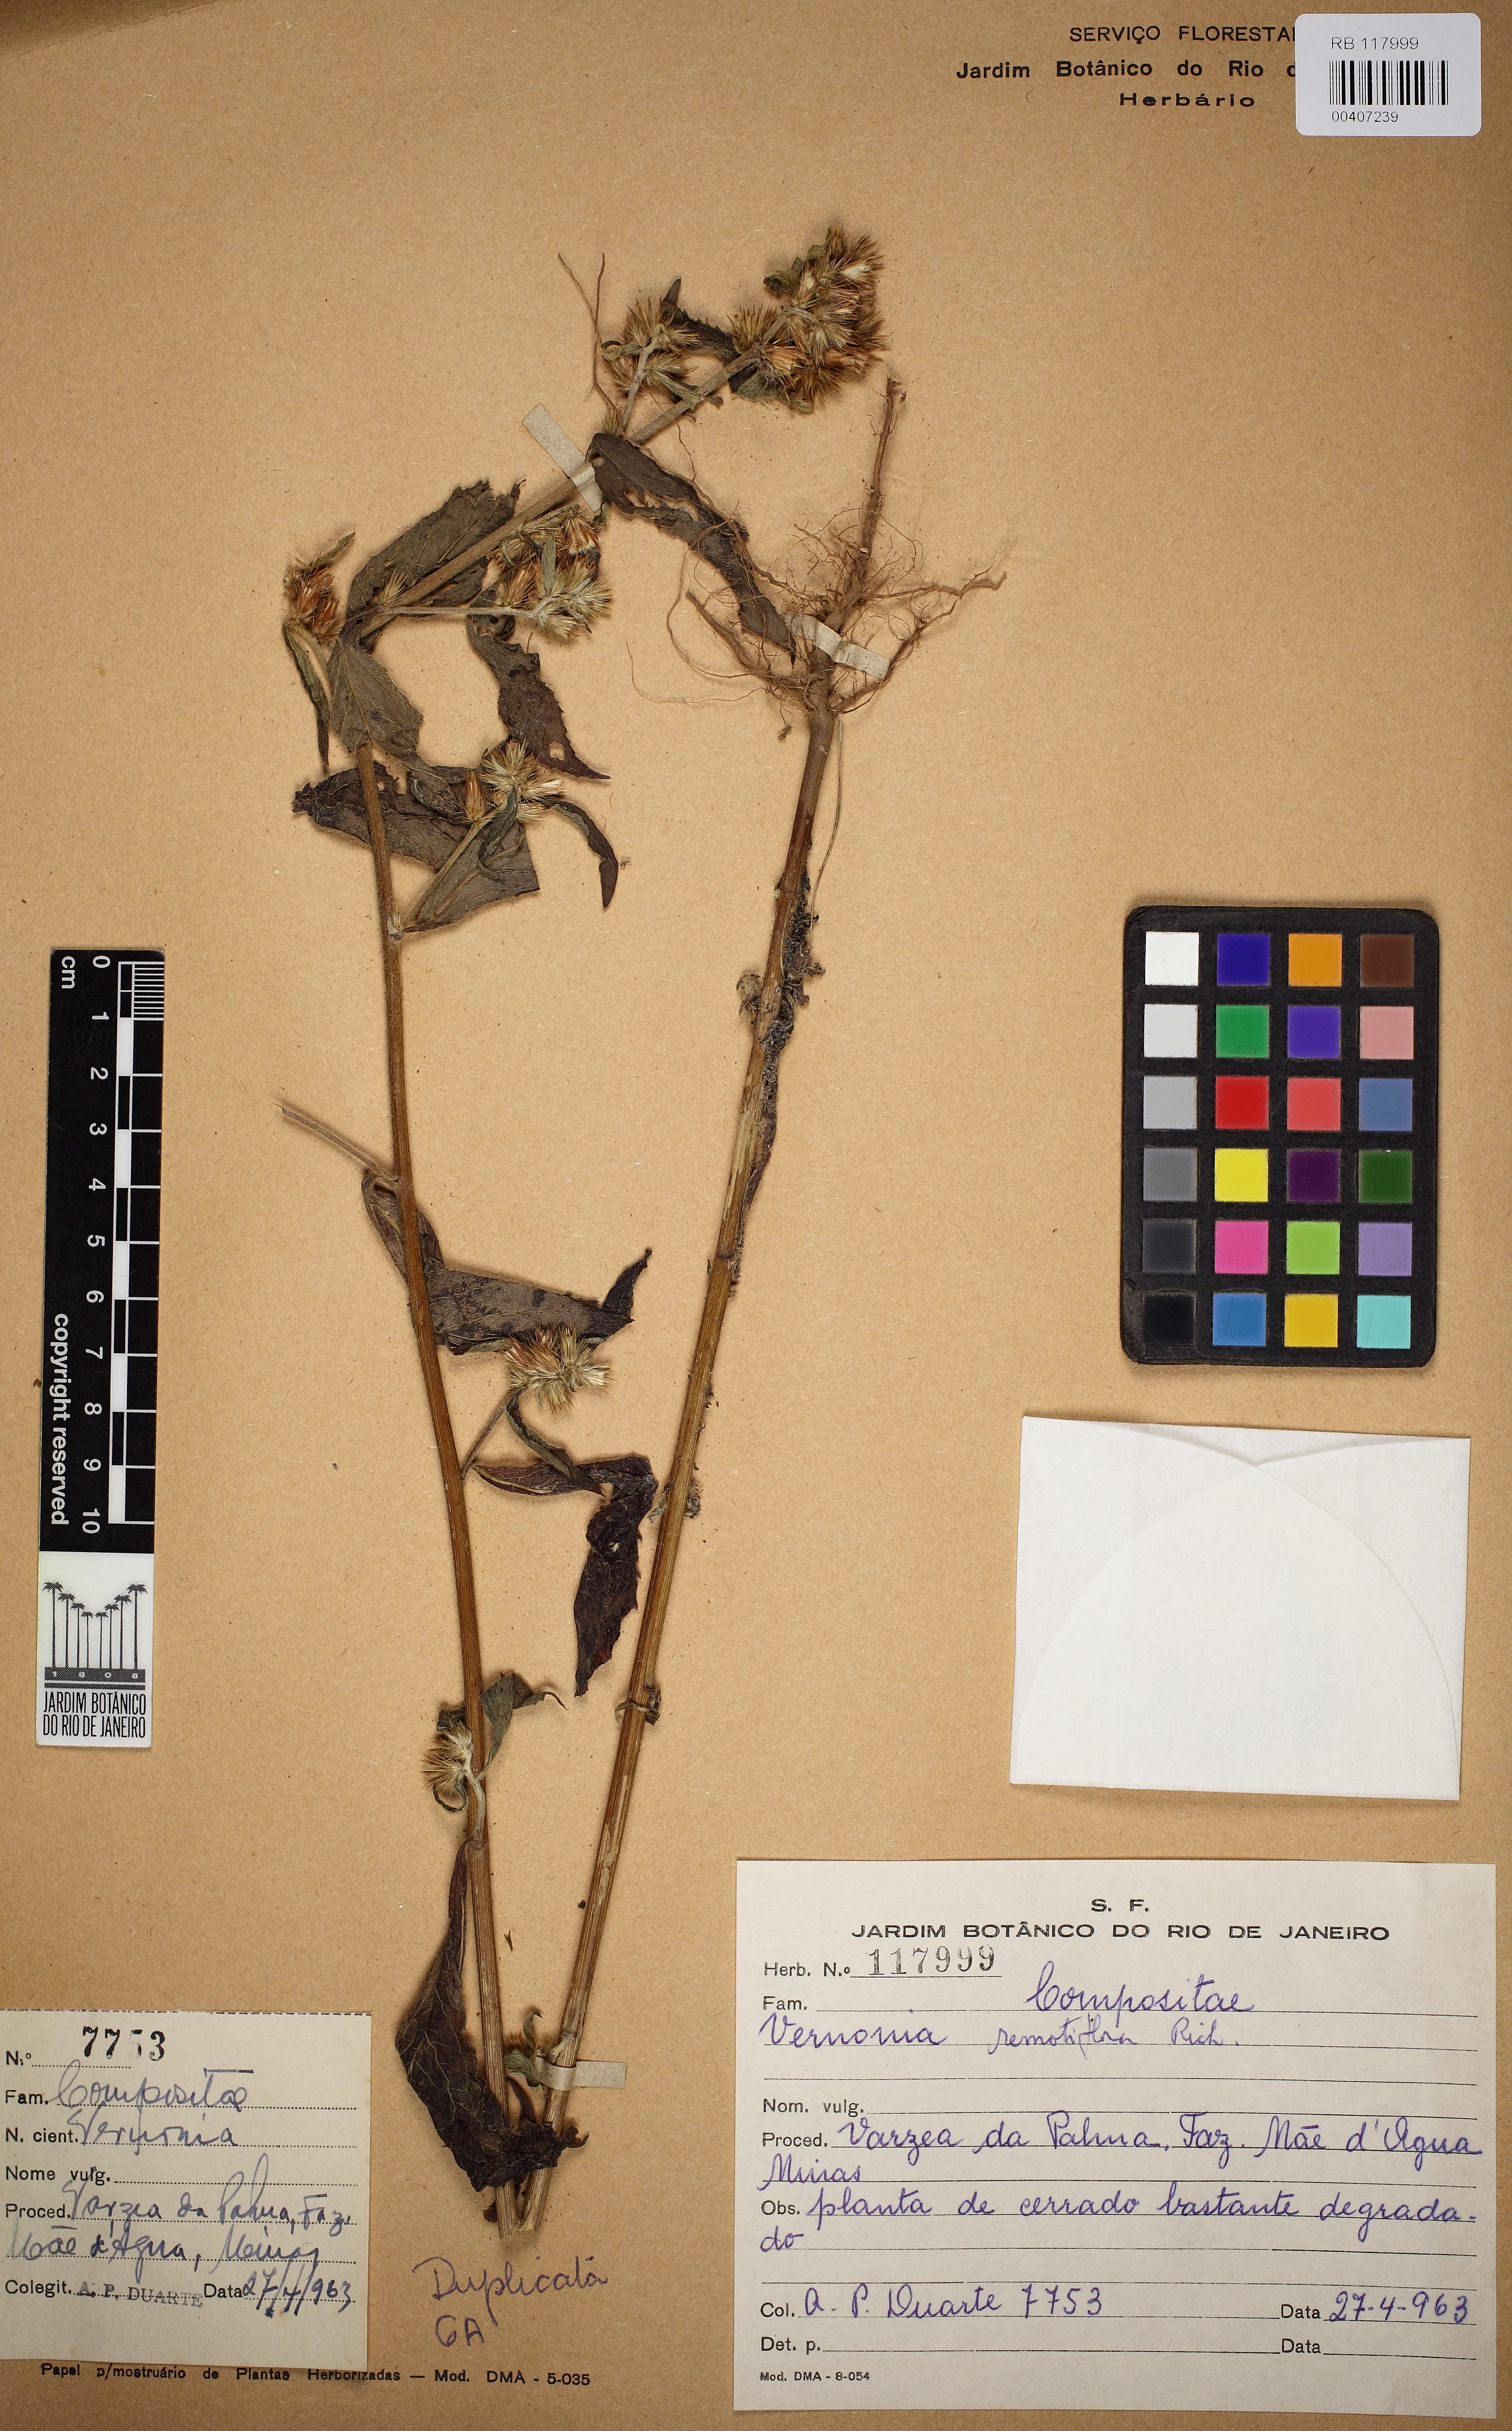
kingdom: Plantae
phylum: Tracheophyta
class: Magnoliopsida
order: Asterales
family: Asteraceae
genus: Lepidaploa
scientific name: Lepidaploa remotiflora
